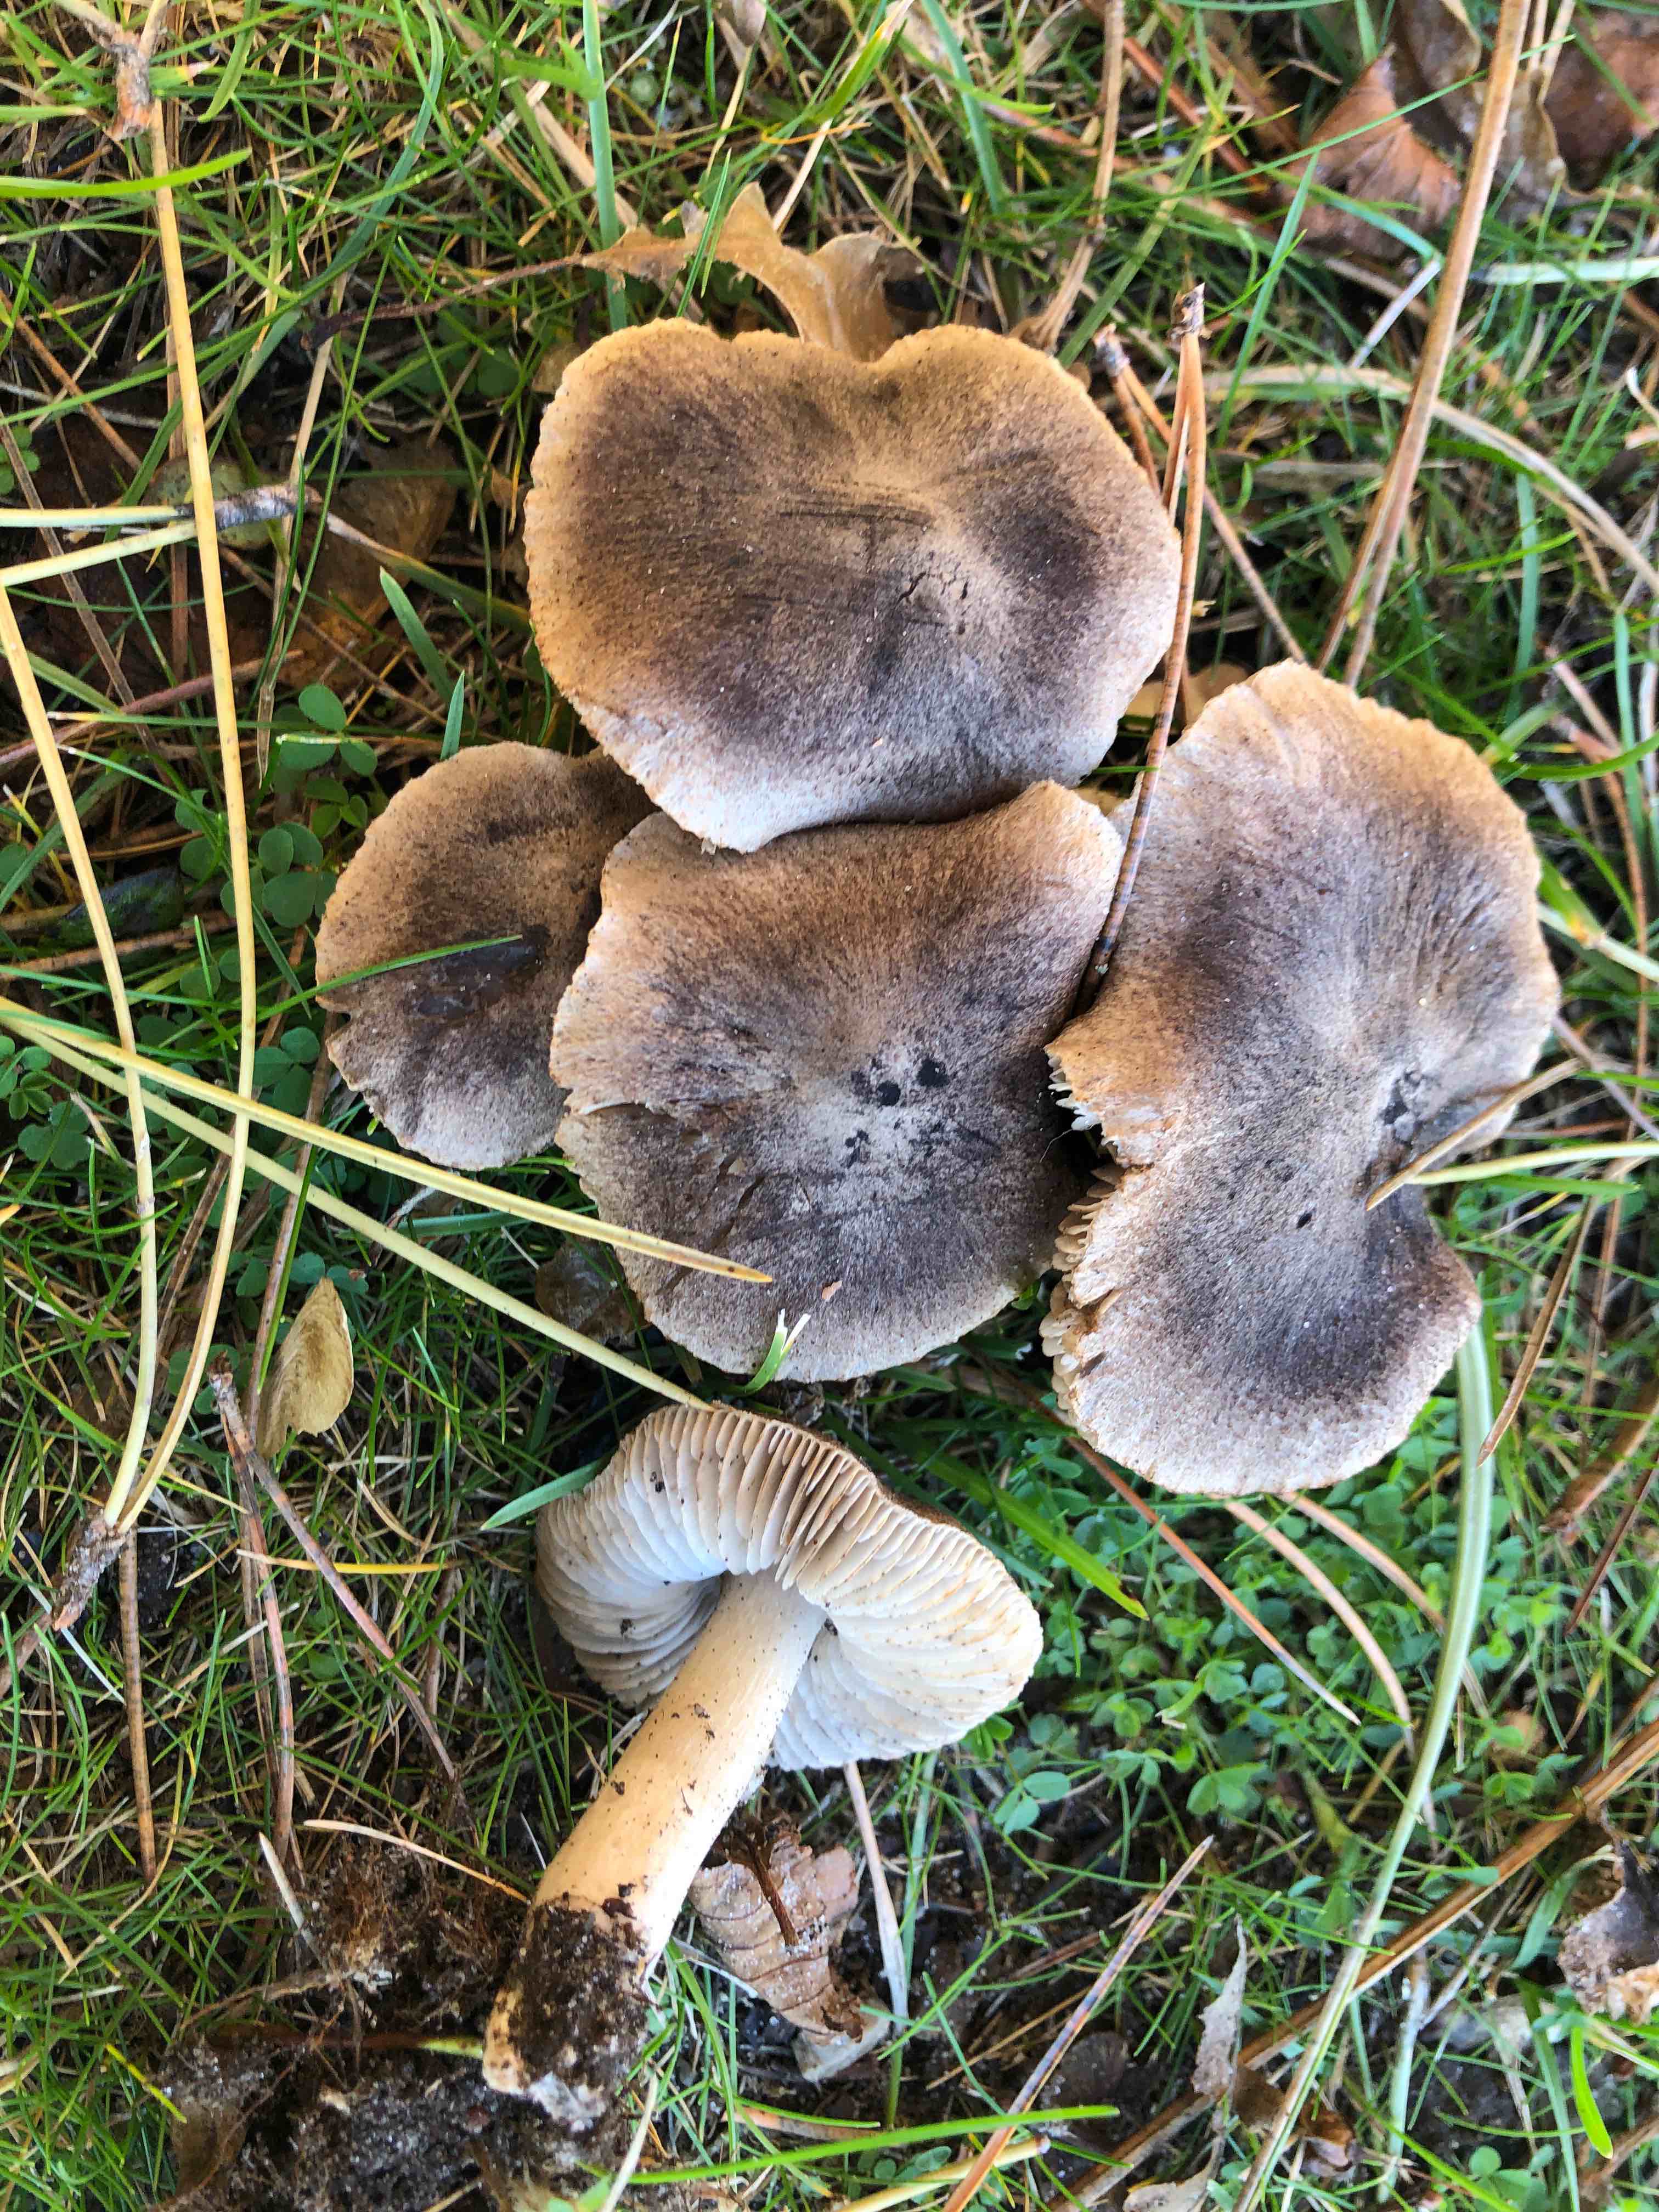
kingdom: Fungi
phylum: Basidiomycota
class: Agaricomycetes
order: Agaricales
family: Tricholomataceae
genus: Tricholoma
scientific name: Tricholoma terreum
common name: jordfarvet ridderhat
